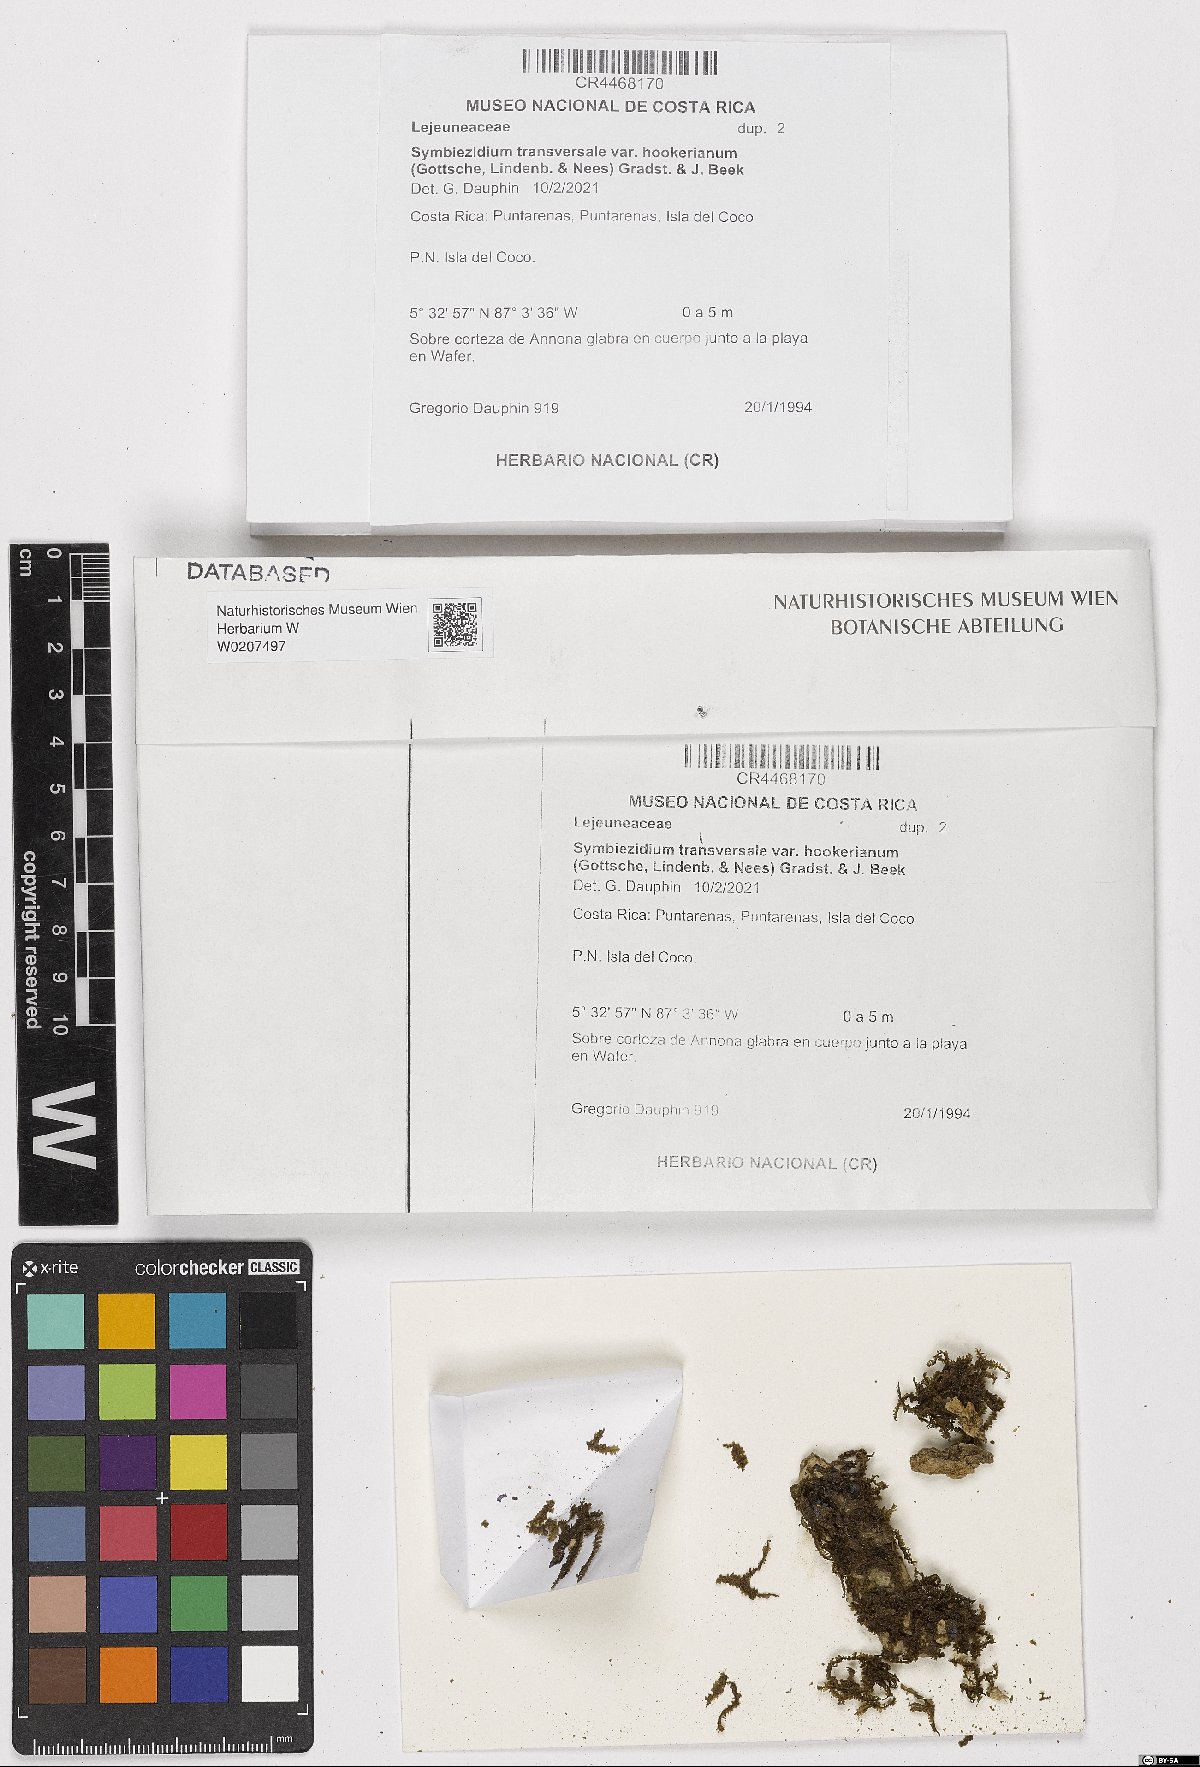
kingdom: Plantae
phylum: Marchantiophyta
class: Jungermanniopsida
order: Porellales
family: Lejeuneaceae
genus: Symbiezidium
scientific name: Symbiezidium transversale
